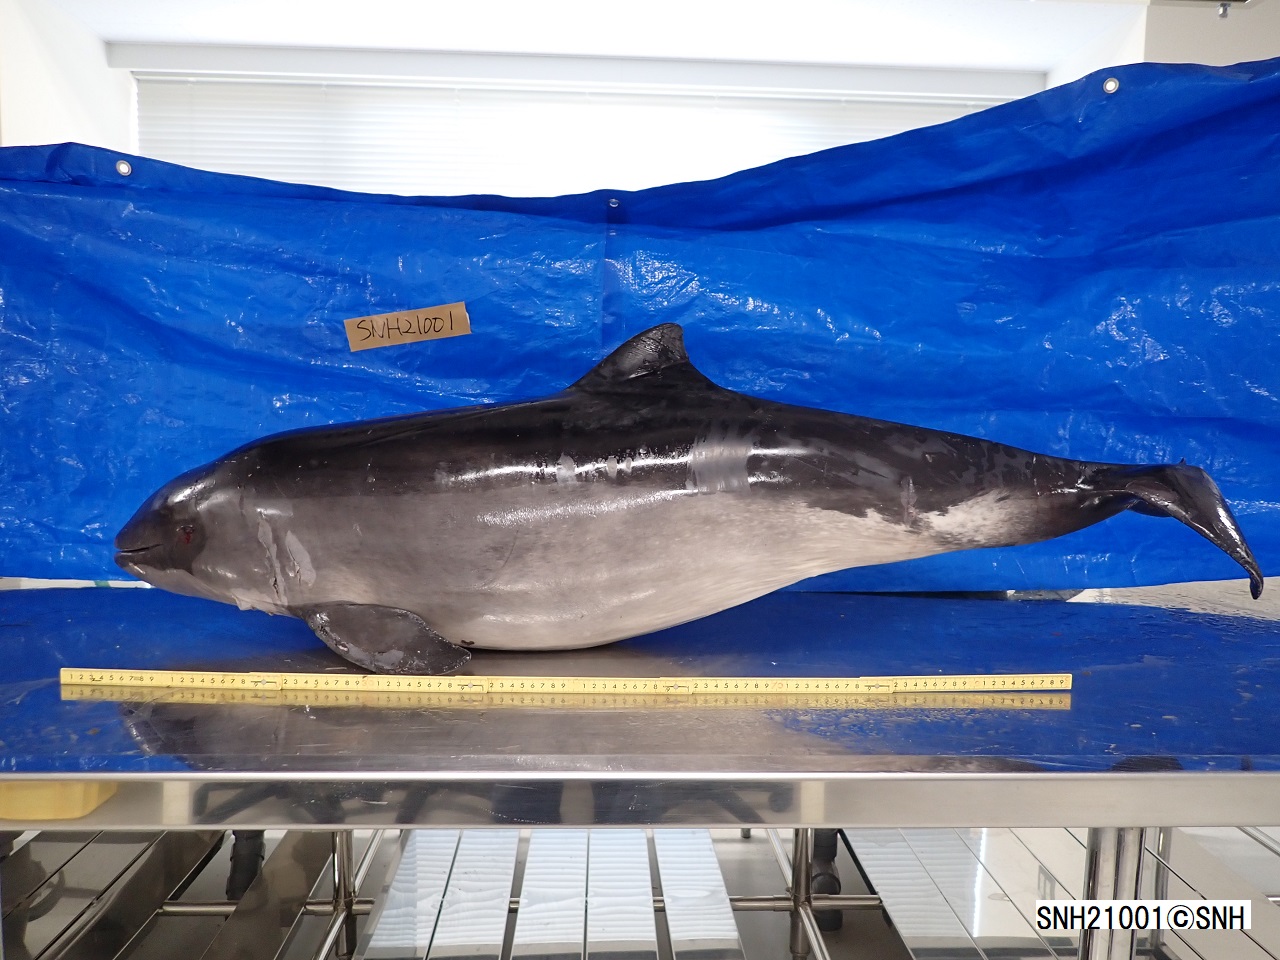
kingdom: Animalia
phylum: Chordata
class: Mammalia
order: Cetacea
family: Phocoenidae
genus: Phocoena
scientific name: Phocoena phocoena
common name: Harbour porpoise
